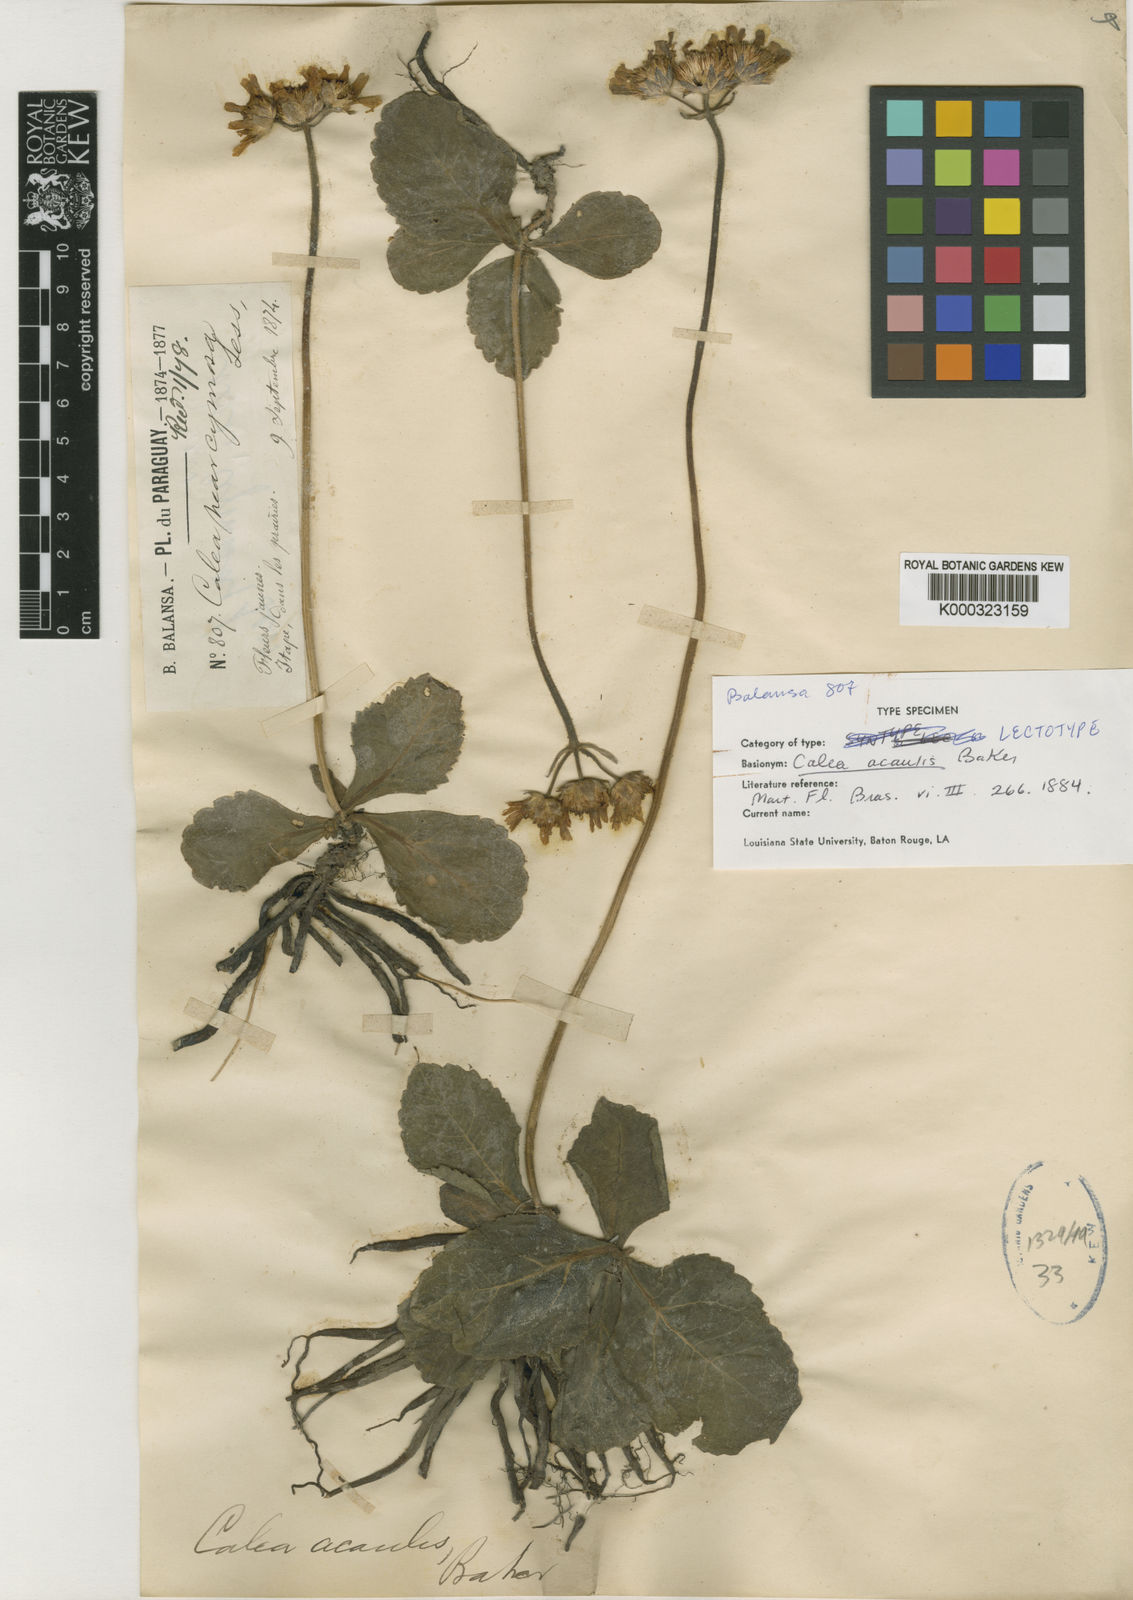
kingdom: Plantae
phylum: Tracheophyta
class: Magnoliopsida
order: Asterales
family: Asteraceae
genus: Calea
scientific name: Calea acaulis
